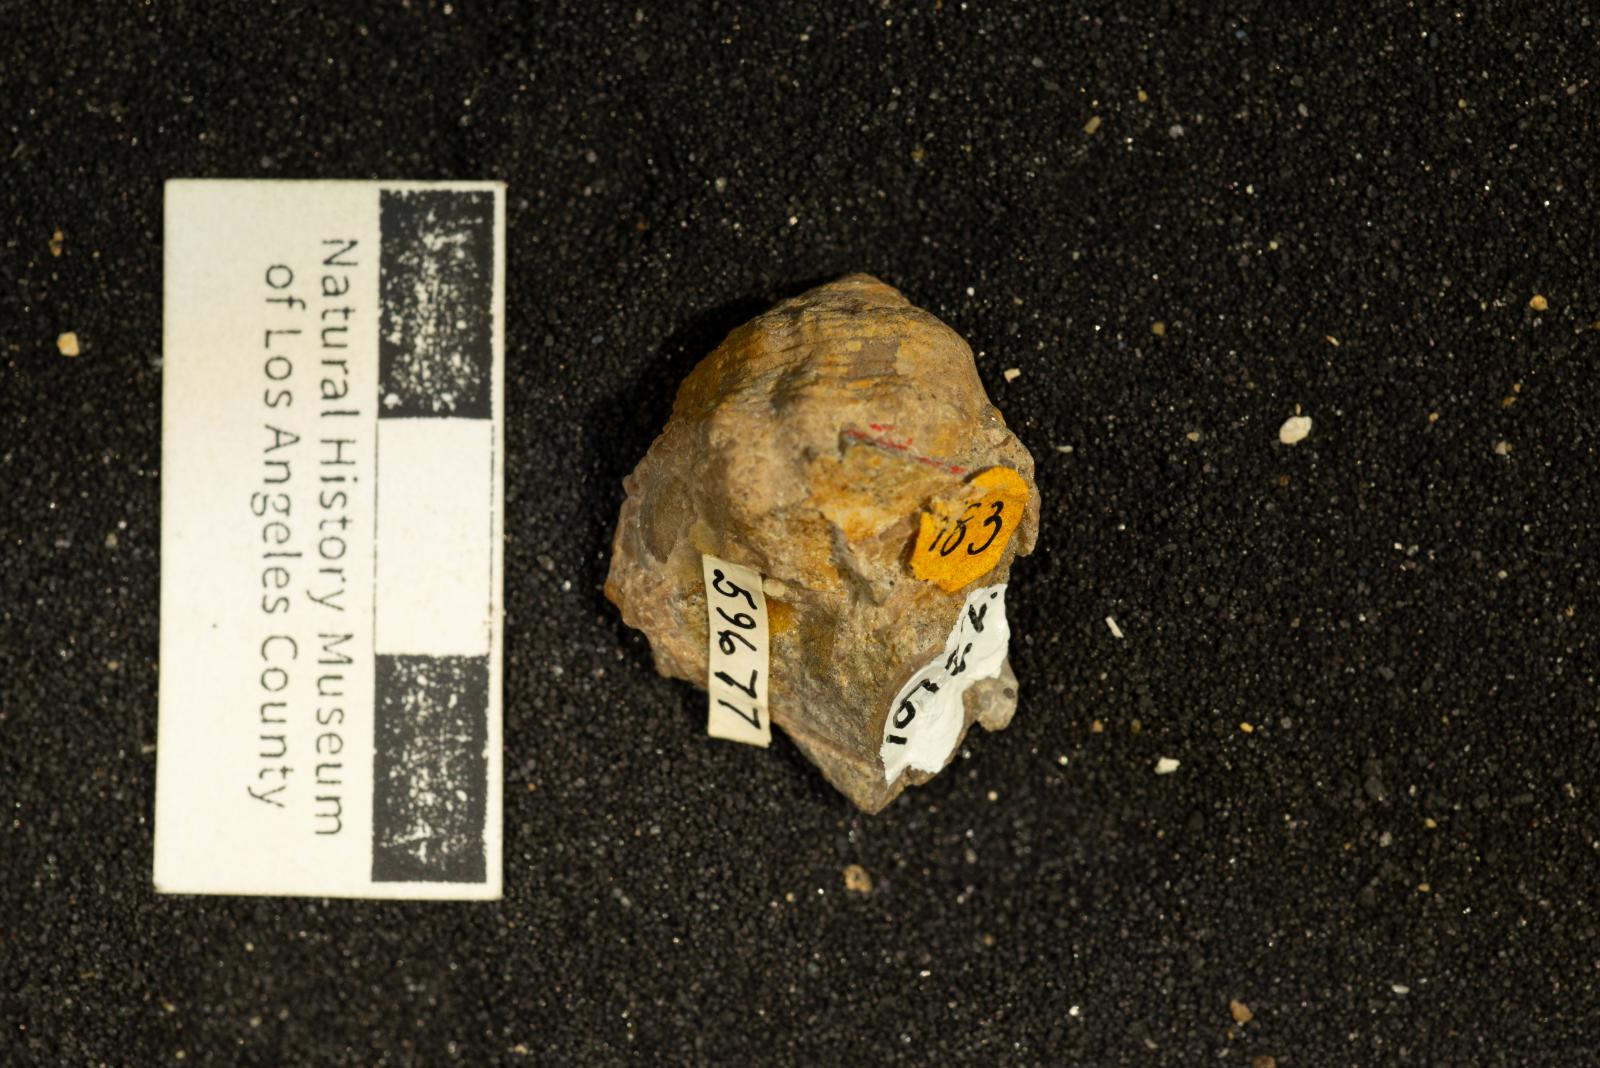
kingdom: Animalia
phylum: Mollusca
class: Gastropoda
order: Neogastropoda
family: Perissityidae
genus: Perissitys
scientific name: Perissitys Perissolax brevirostris
